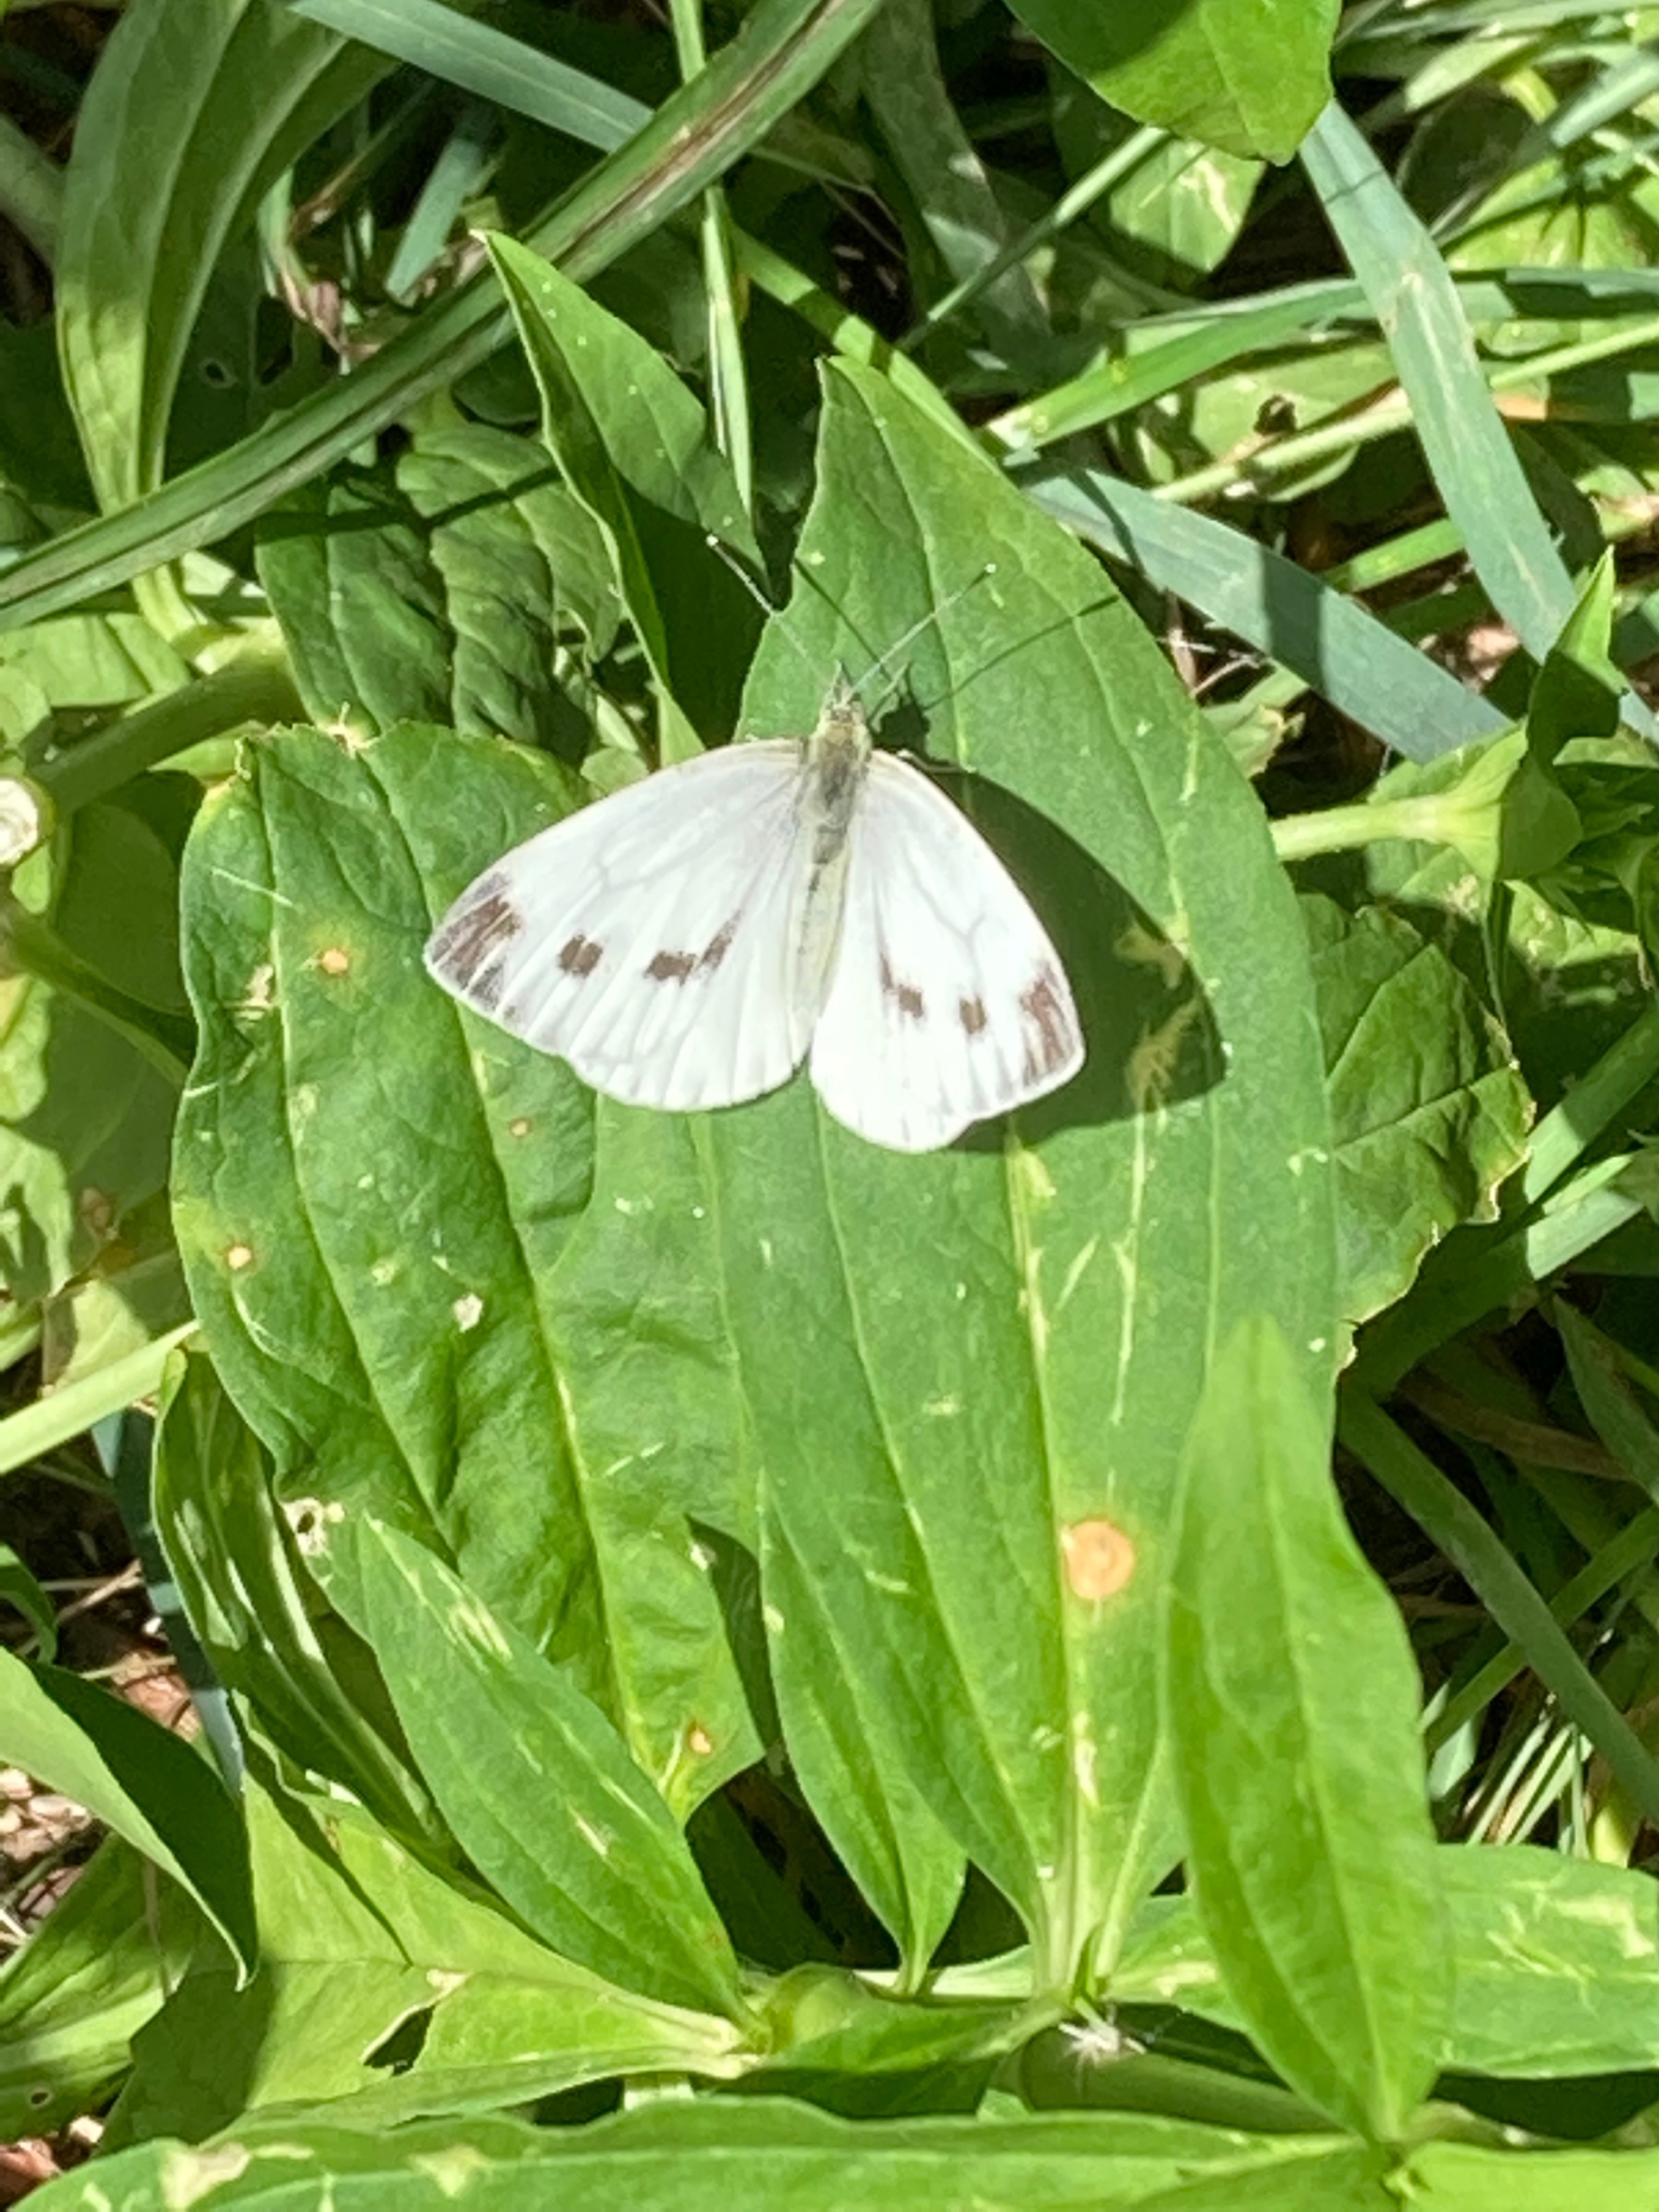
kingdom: Animalia
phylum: Arthropoda
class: Insecta
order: Lepidoptera
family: Pieridae
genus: Pieris
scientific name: Pieris napi
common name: Grønåret kålsommerfugl
